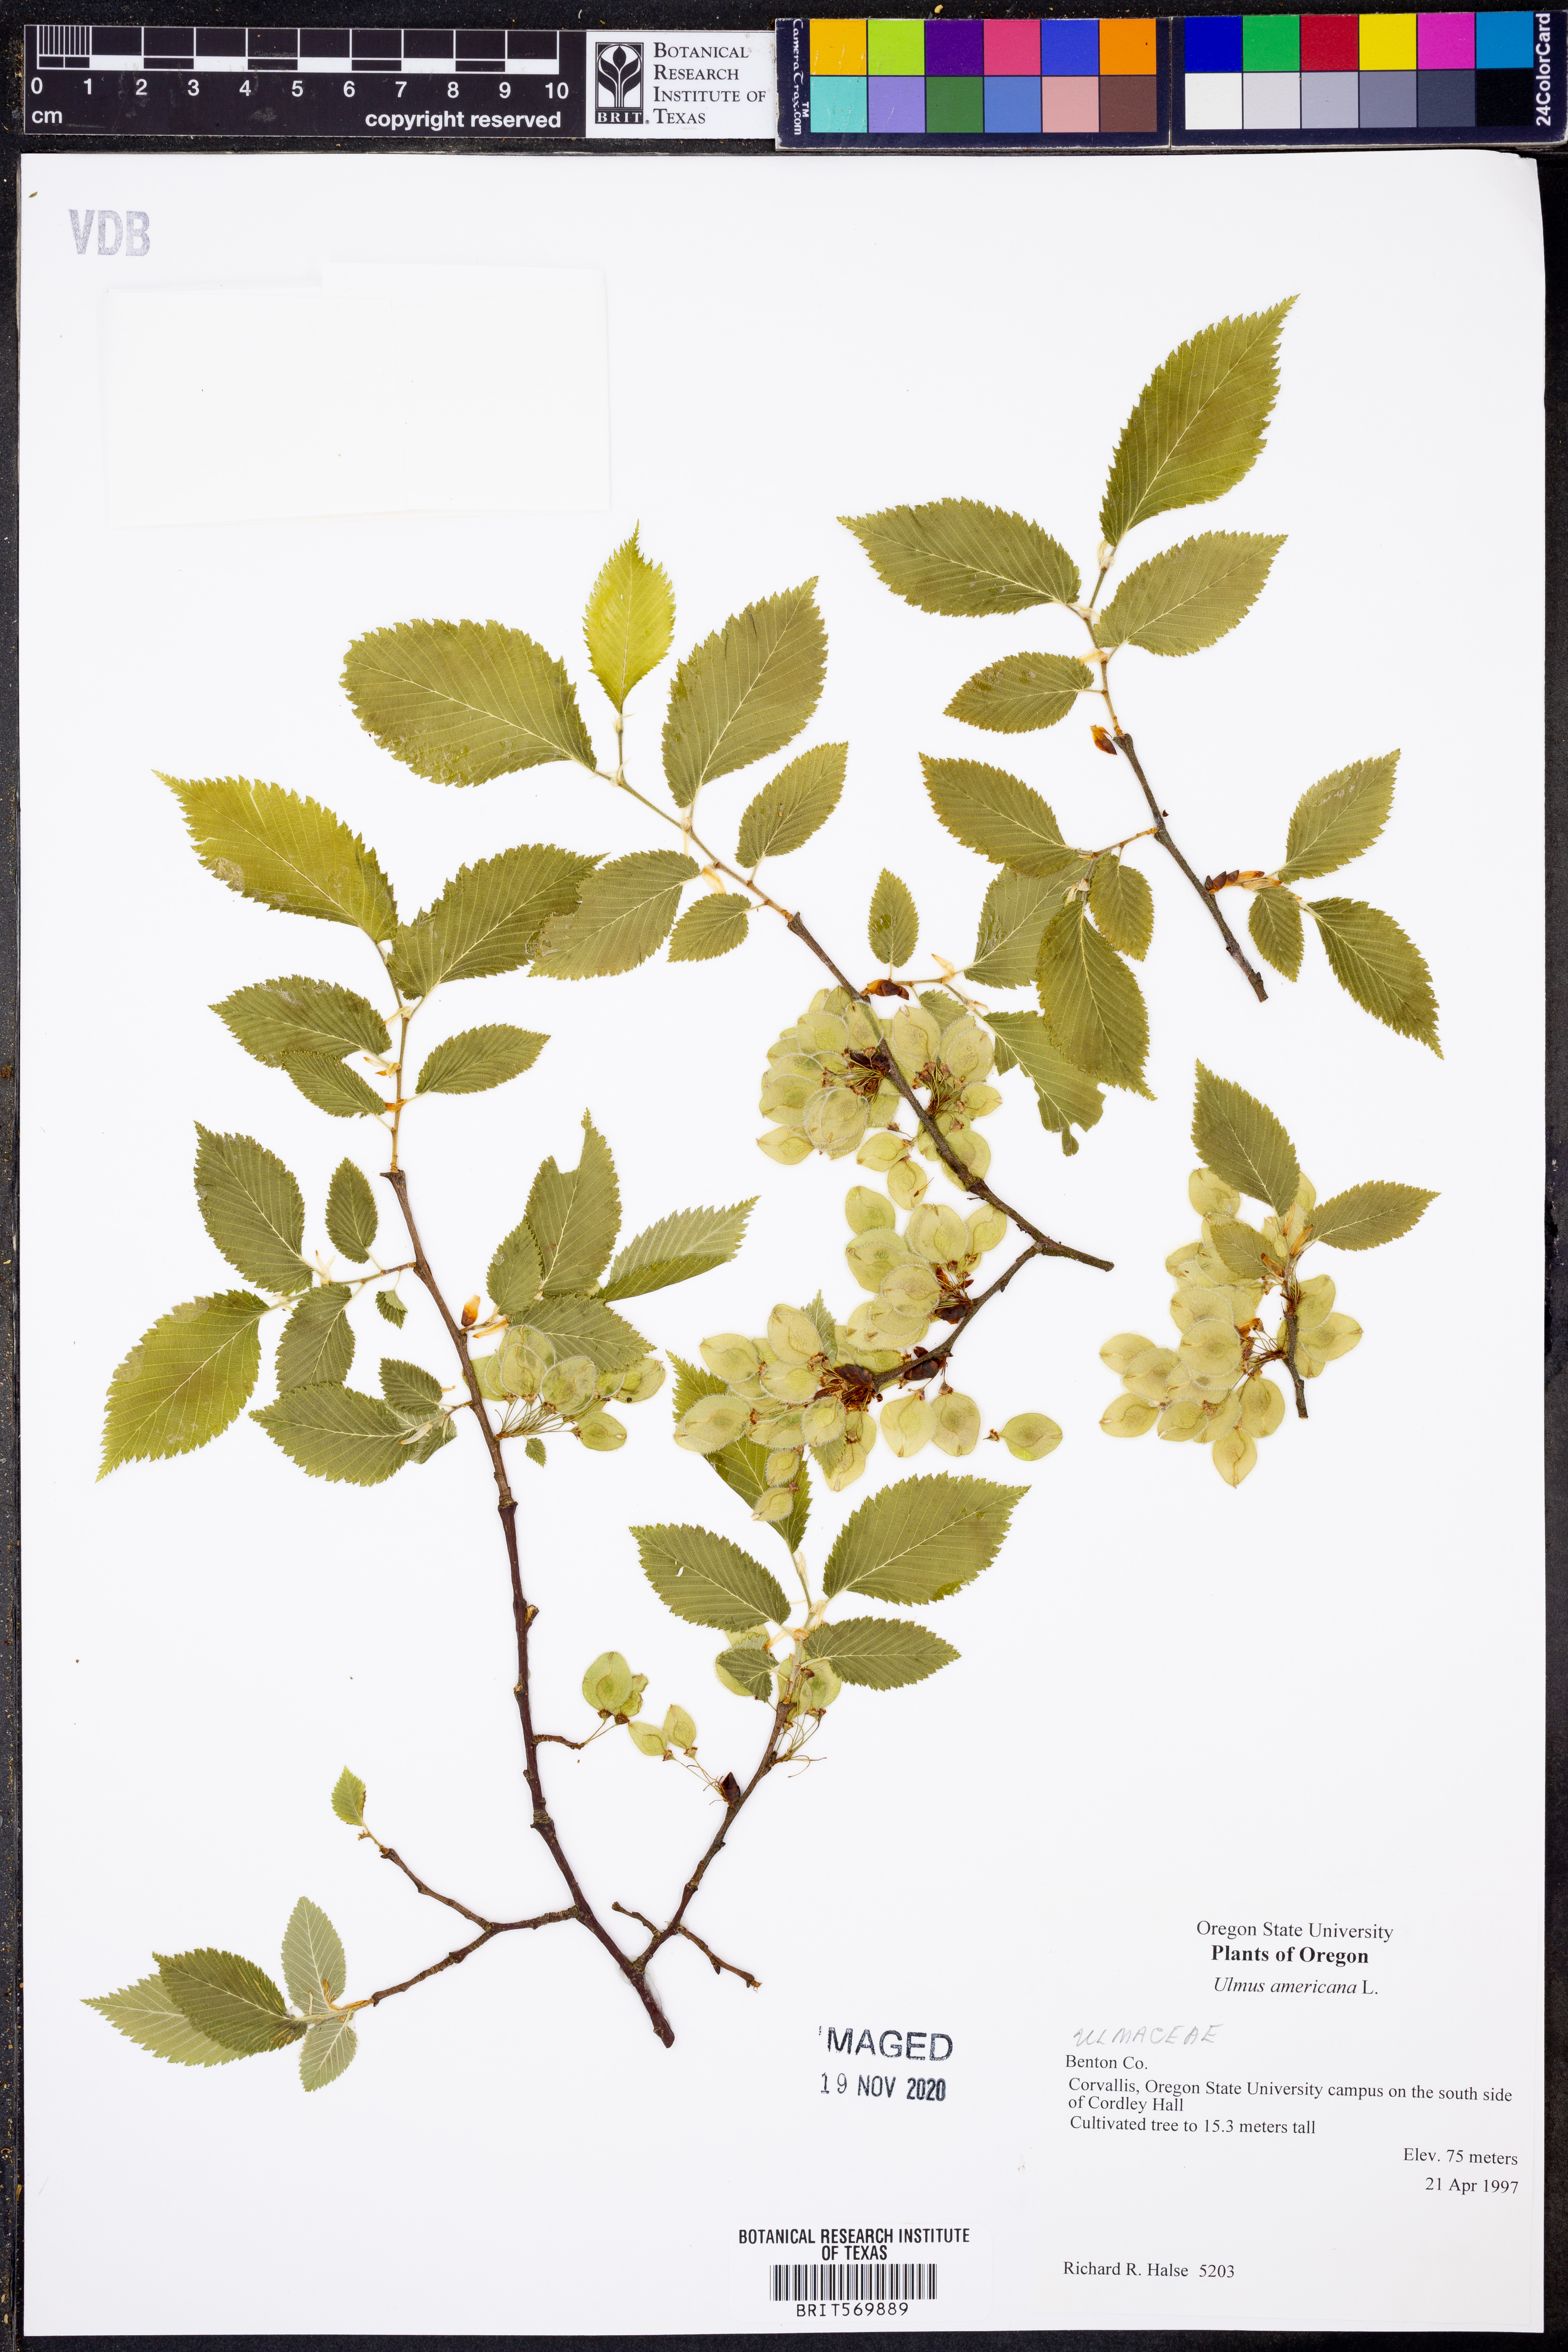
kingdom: Plantae
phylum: Tracheophyta
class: Magnoliopsida
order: Rosales
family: Ulmaceae
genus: Ulmus
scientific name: Ulmus americana
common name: American elm
